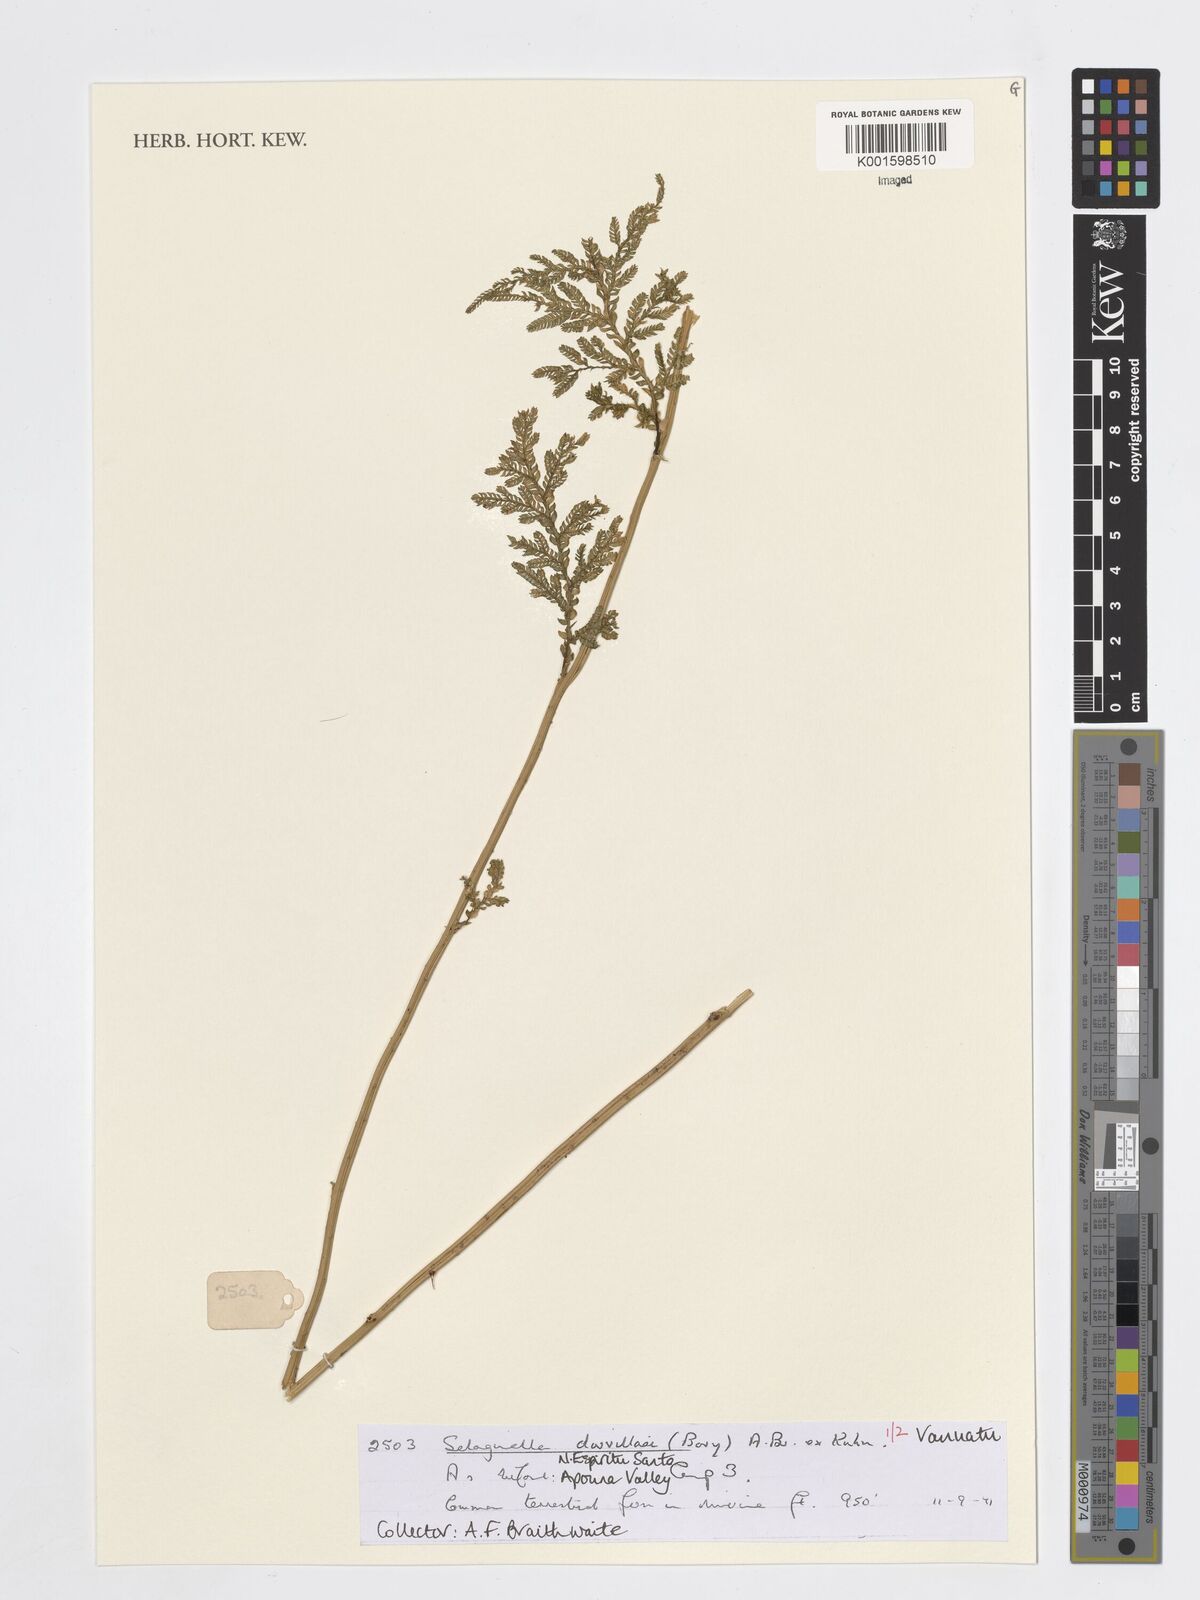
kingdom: Plantae
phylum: Tracheophyta
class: Lycopodiopsida
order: Selaginellales
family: Selaginellaceae
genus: Selaginella
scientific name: Selaginella
